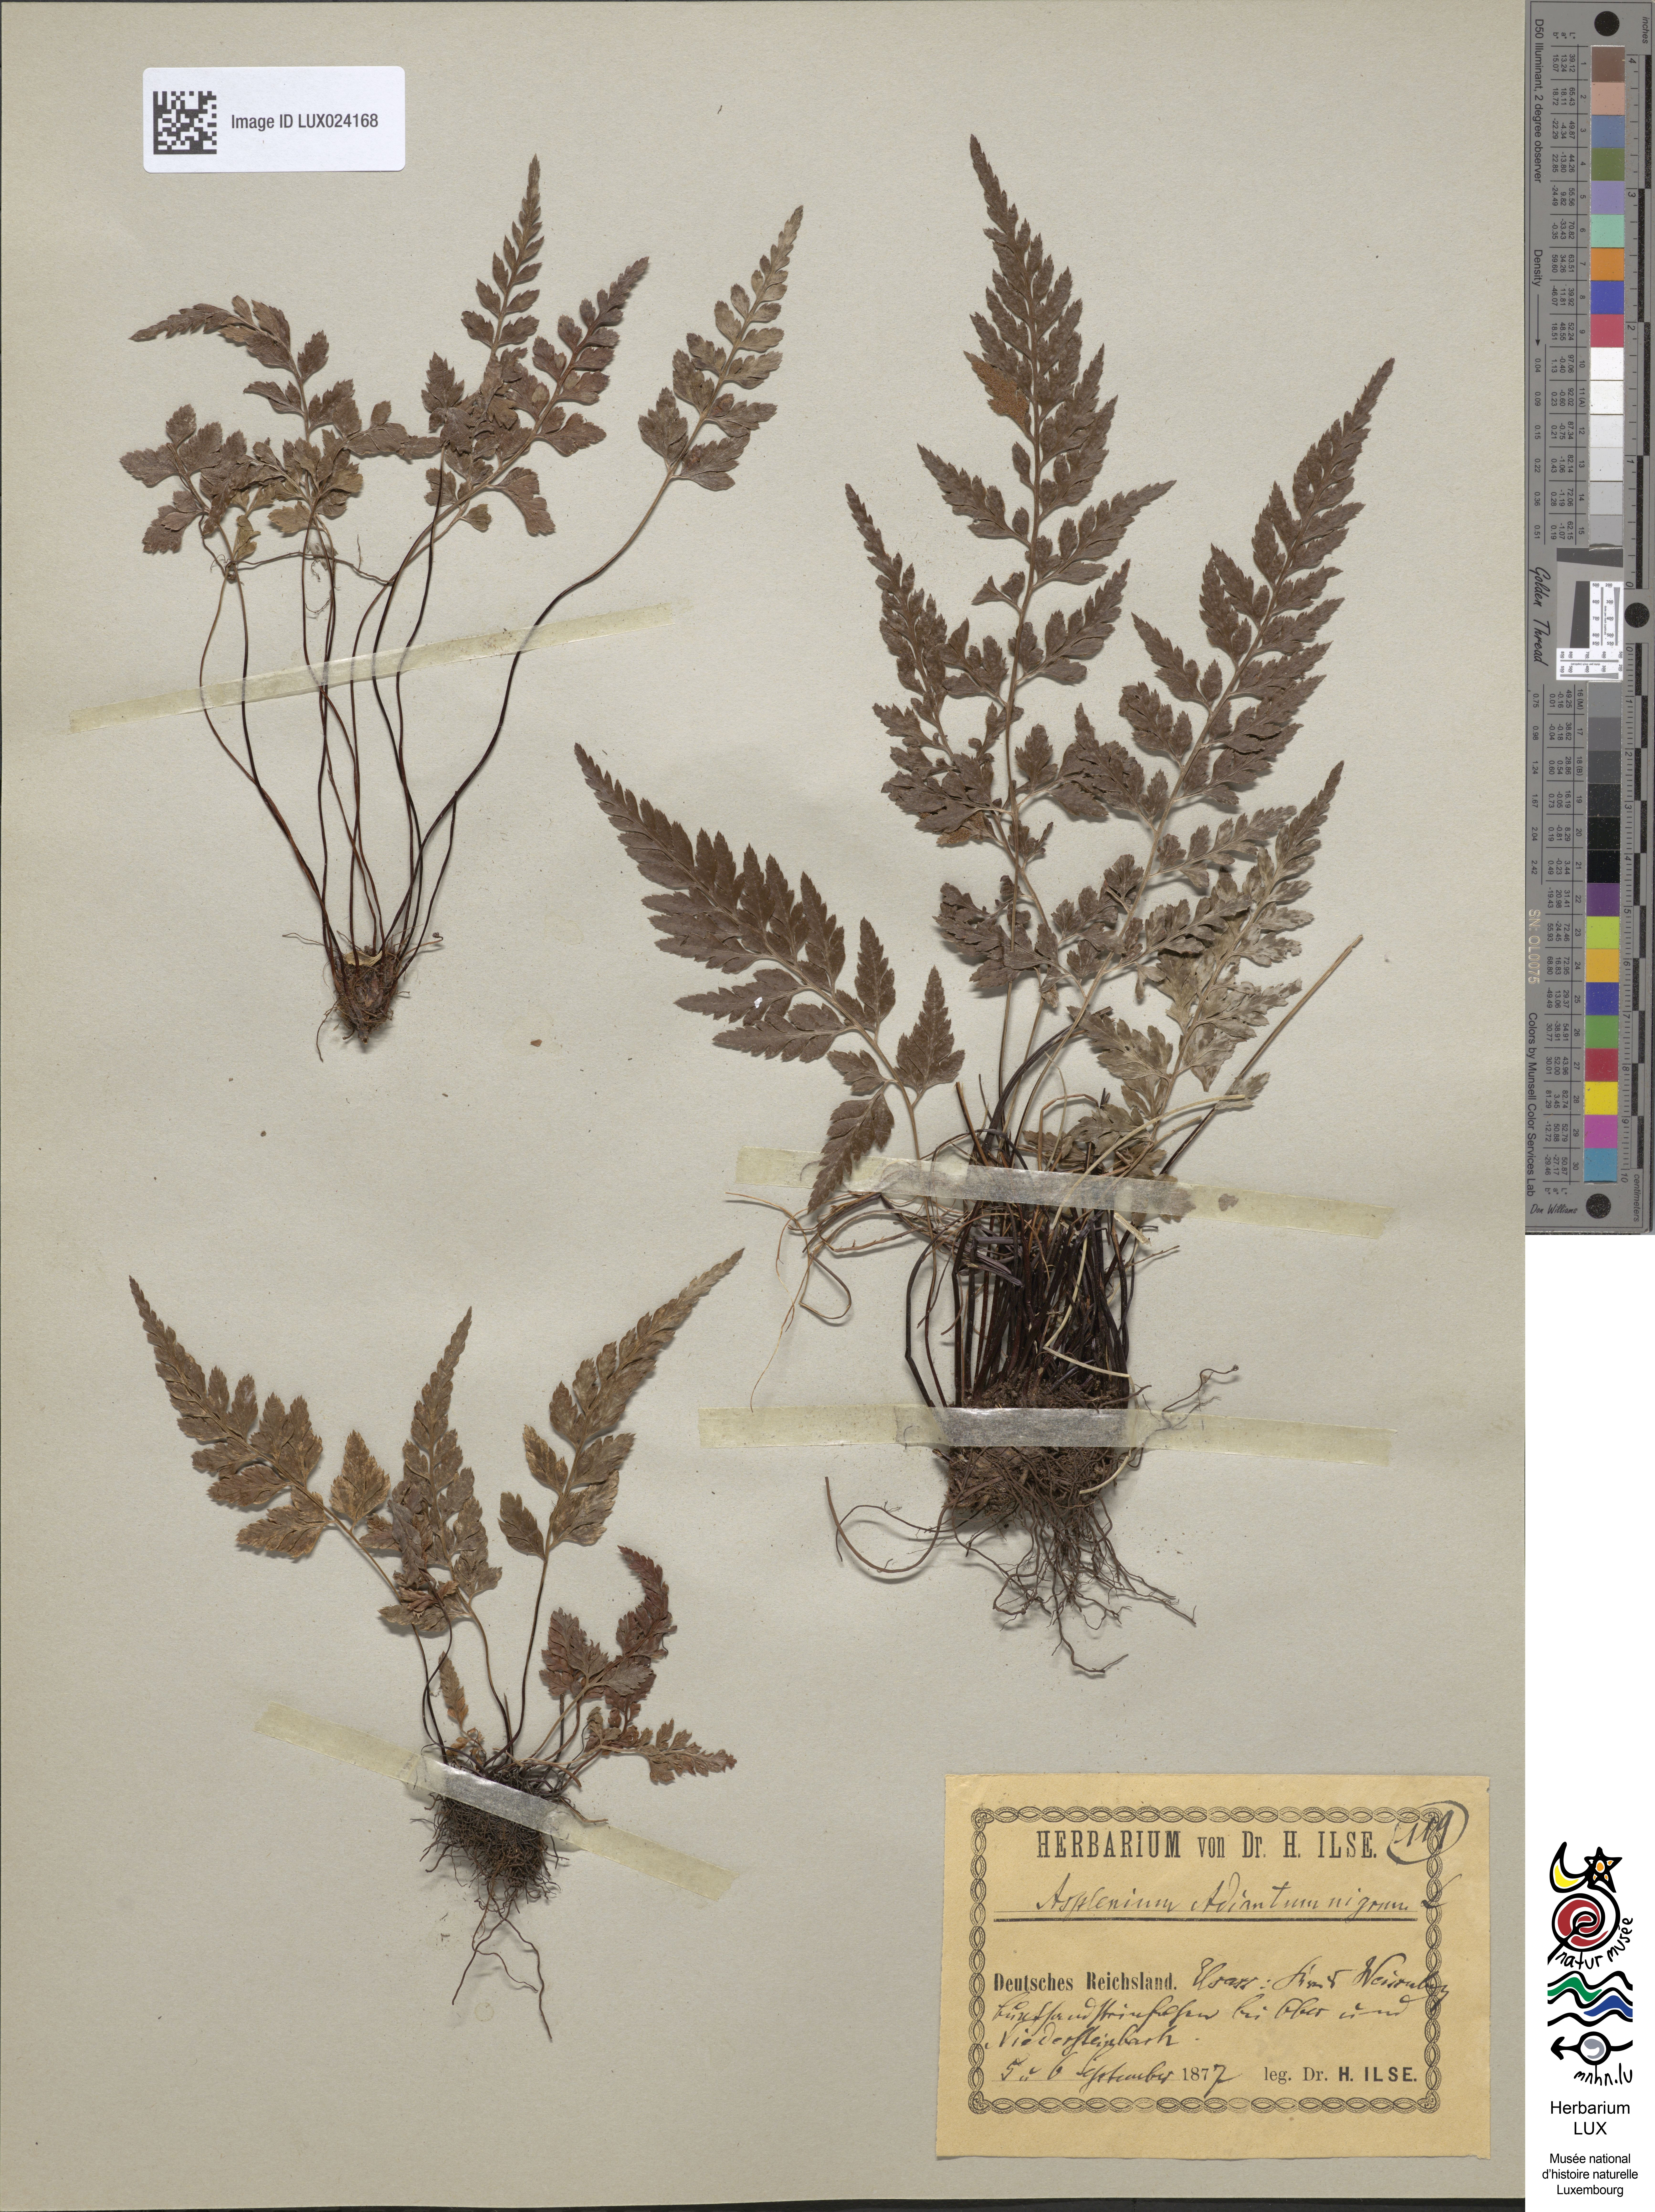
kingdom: Plantae
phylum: Tracheophyta
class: Polypodiopsida
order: Polypodiales
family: Aspleniaceae
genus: Asplenium
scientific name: Asplenium adiantum-nigrum
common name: Black spleenwort
